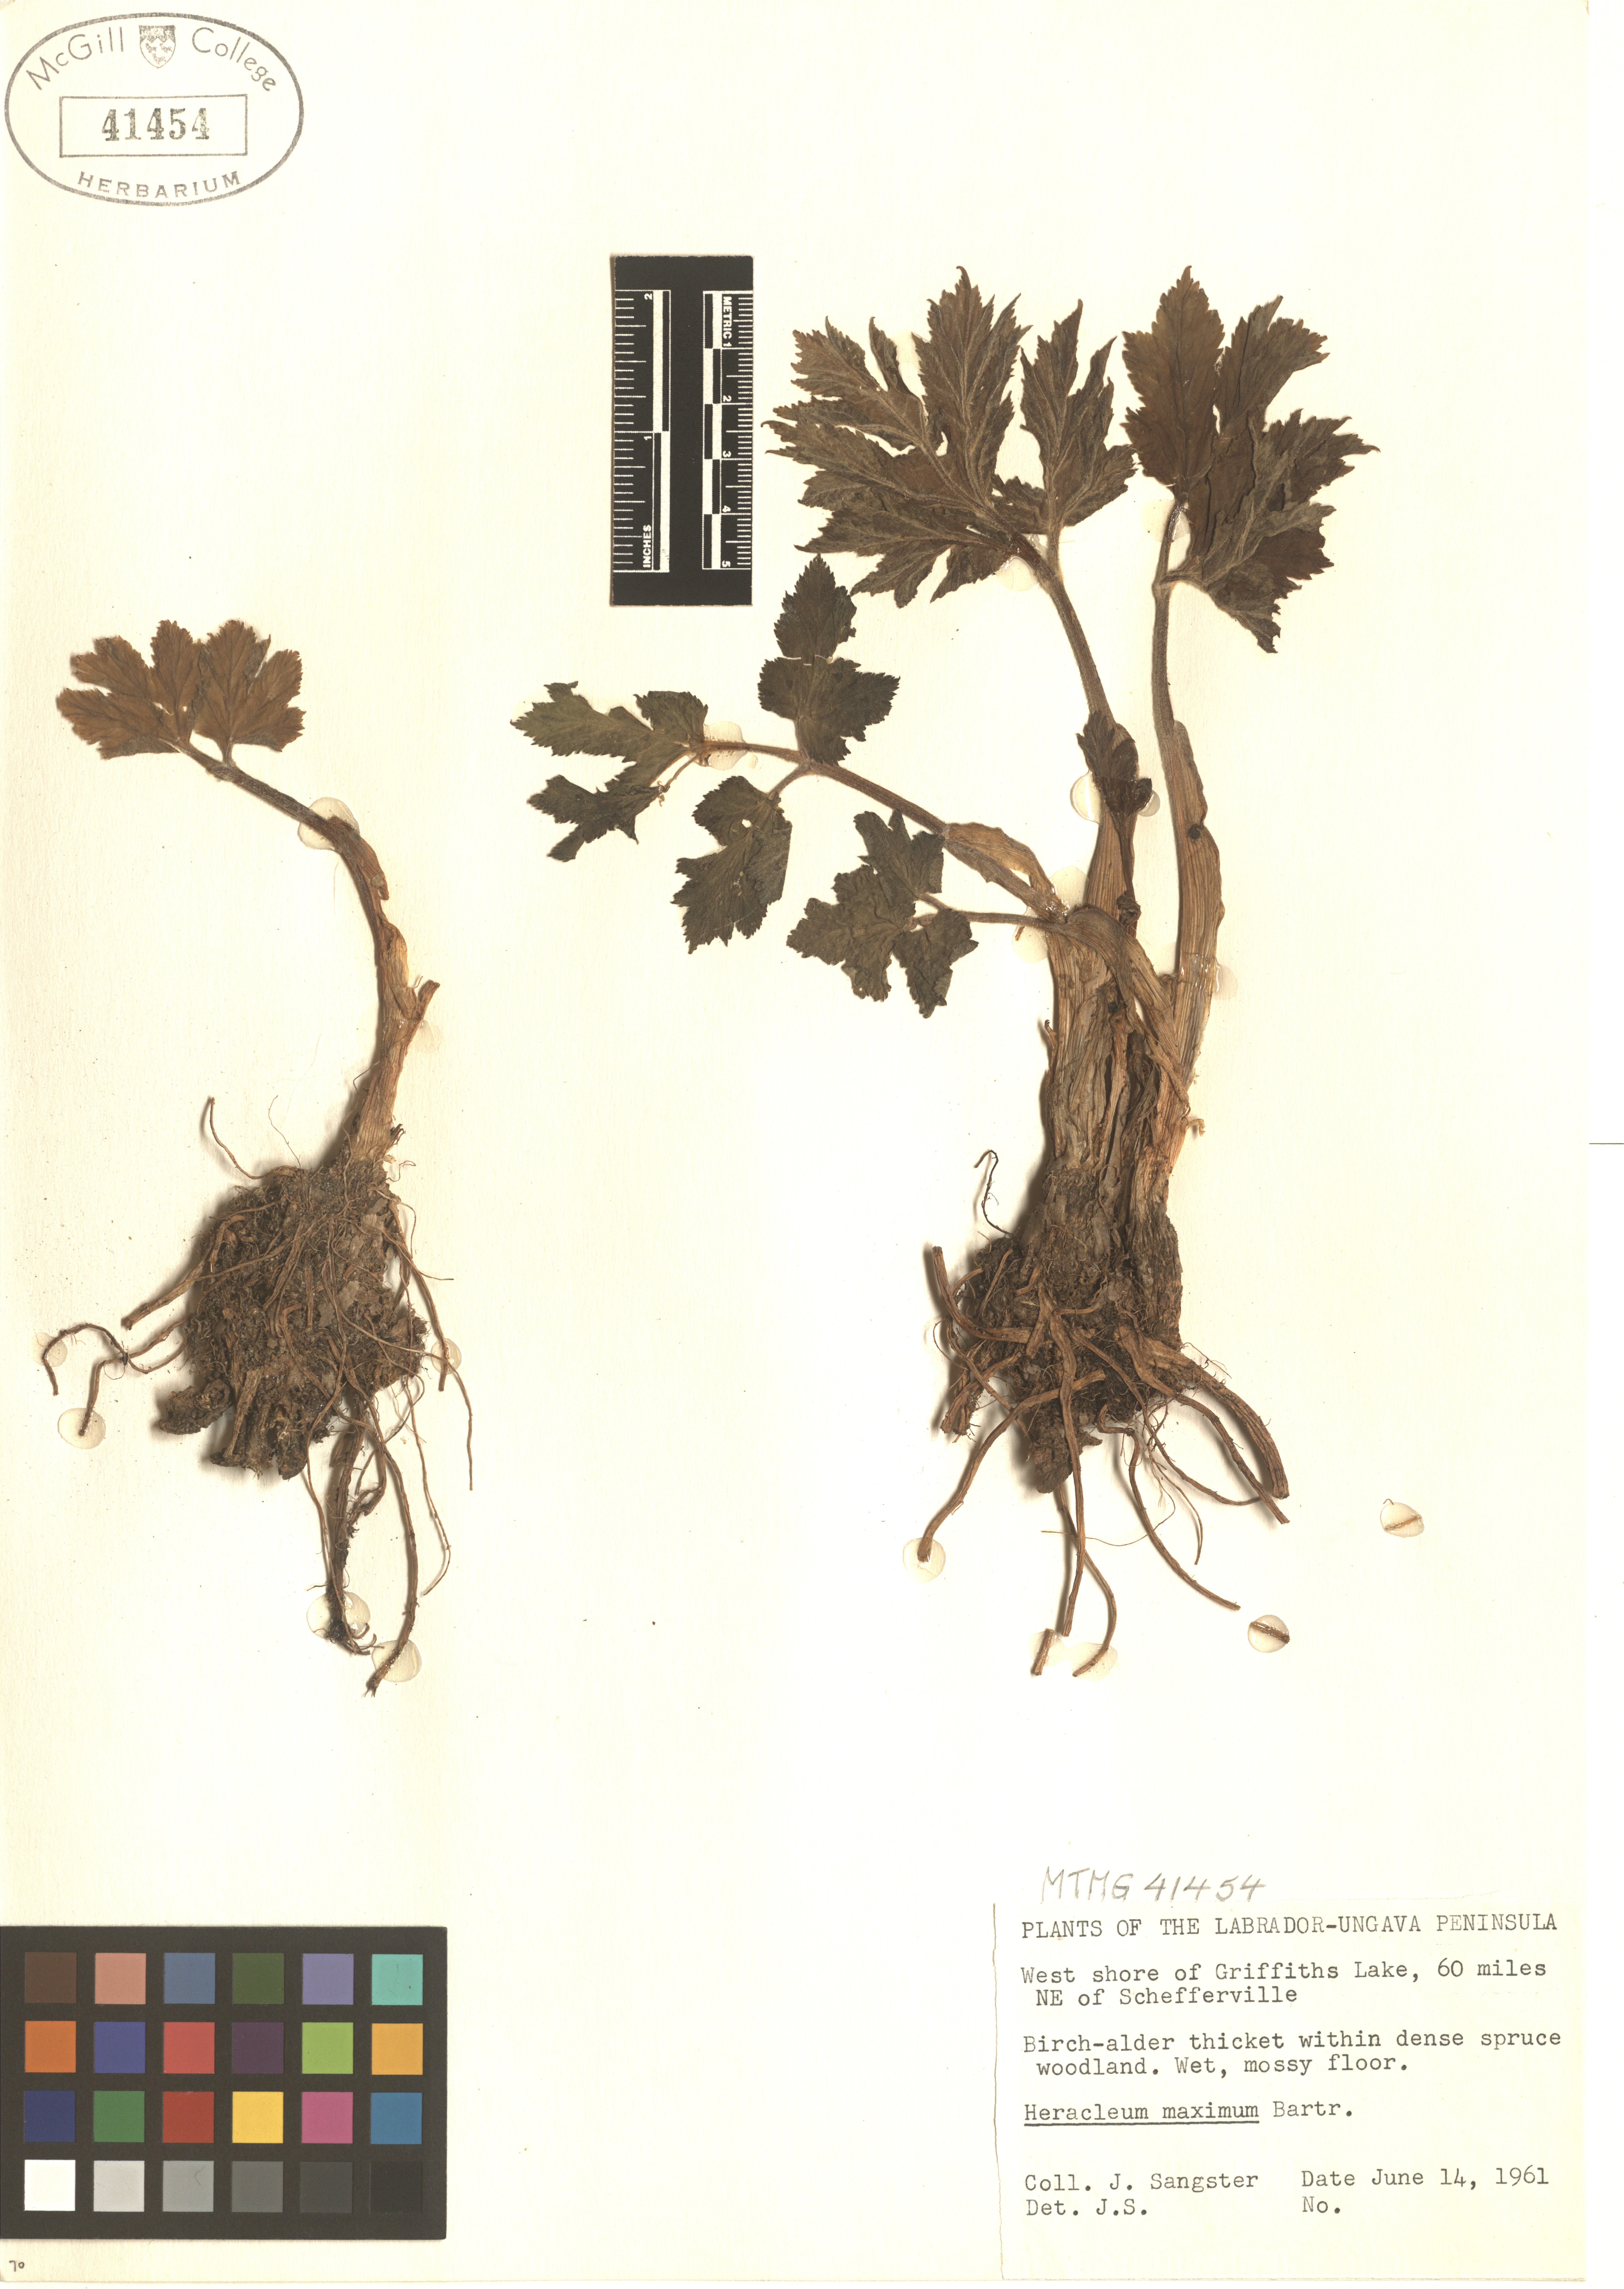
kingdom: Plantae
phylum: Tracheophyta
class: Magnoliopsida
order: Apiales
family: Apiaceae
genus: Heracleum
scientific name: Heracleum maximum
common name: American cow parsnip
